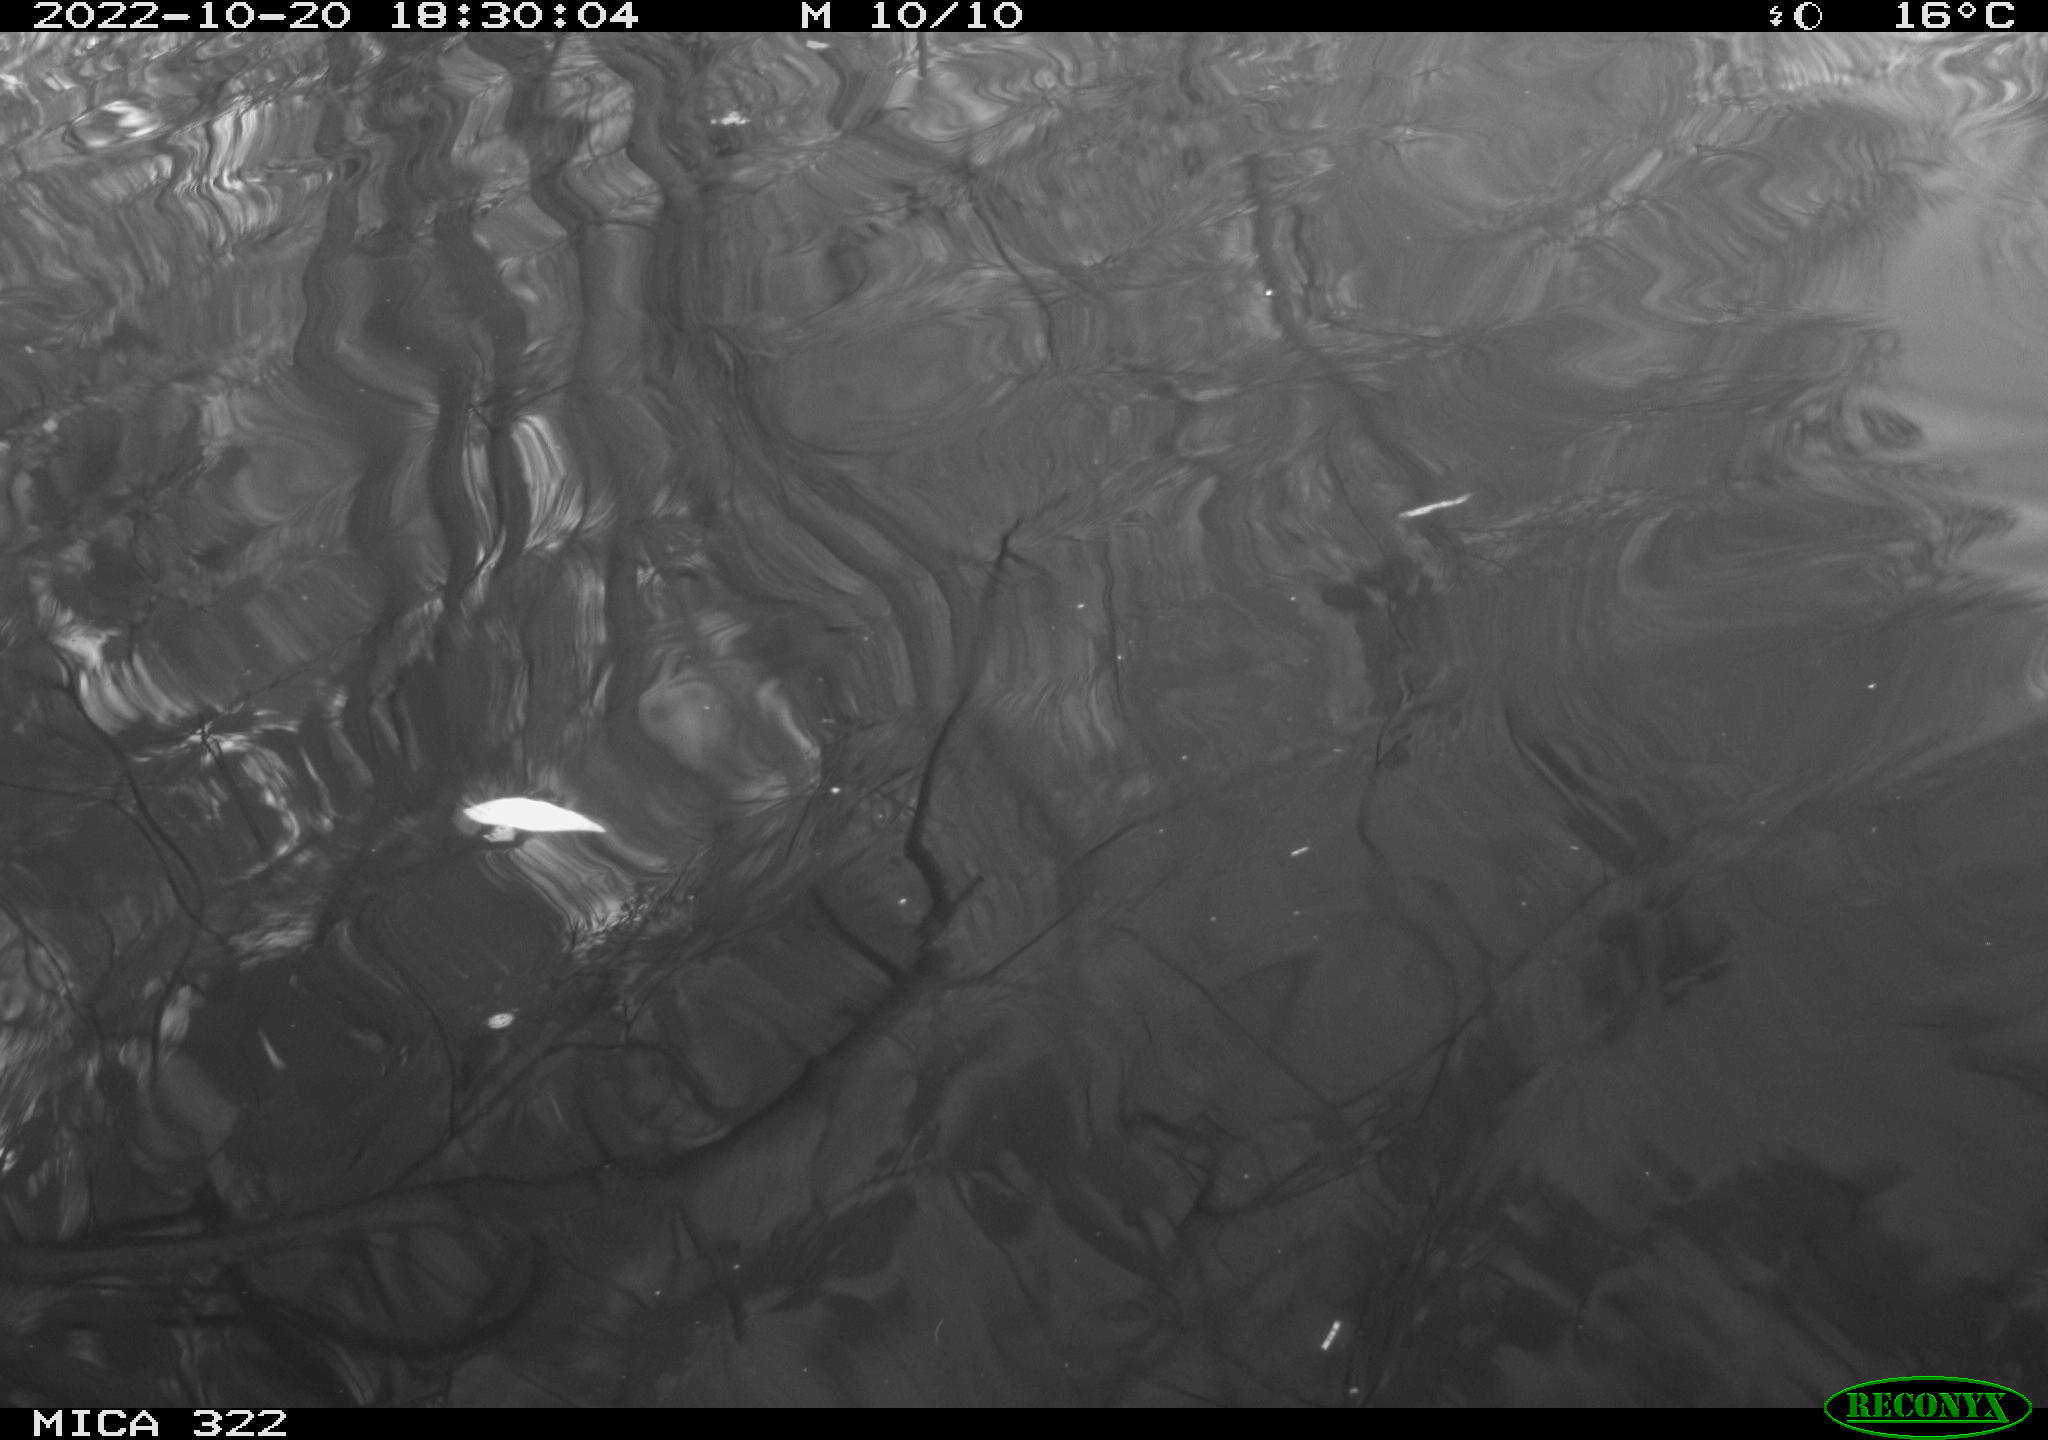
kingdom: Animalia
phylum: Chordata
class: Aves
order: Gruiformes
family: Rallidae
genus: Fulica
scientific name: Fulica atra
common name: Eurasian coot
